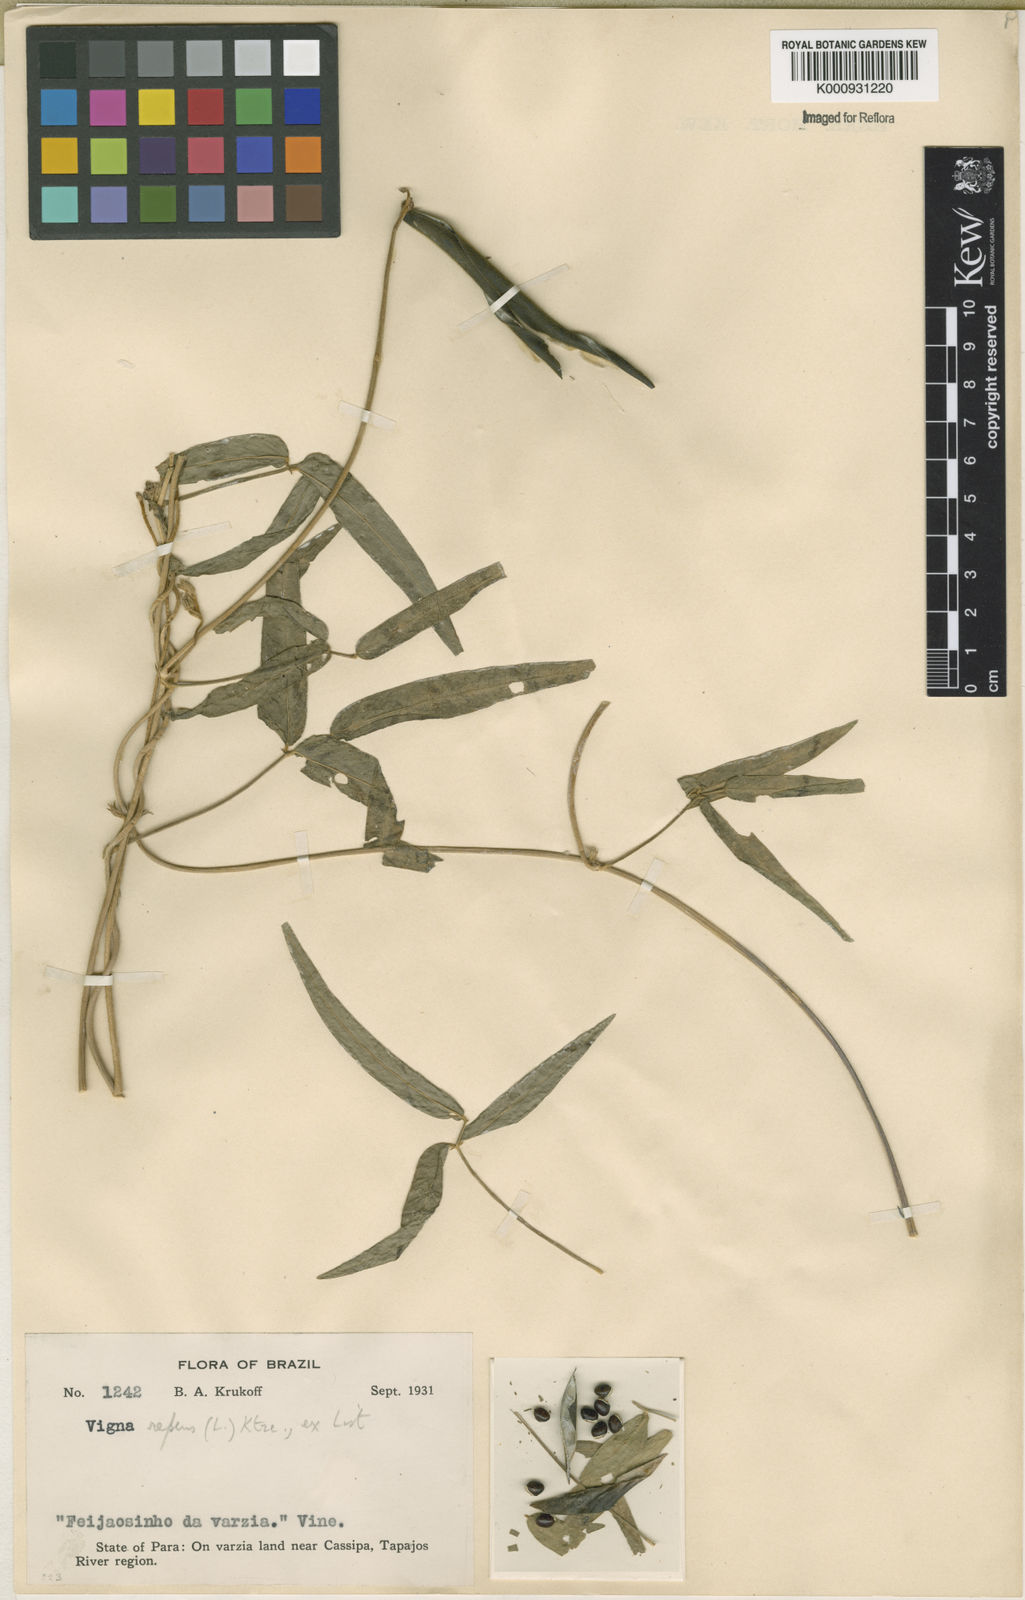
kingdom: Plantae
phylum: Tracheophyta
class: Magnoliopsida
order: Fabales
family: Fabaceae
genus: Vigna
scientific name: Vigna longifolia
